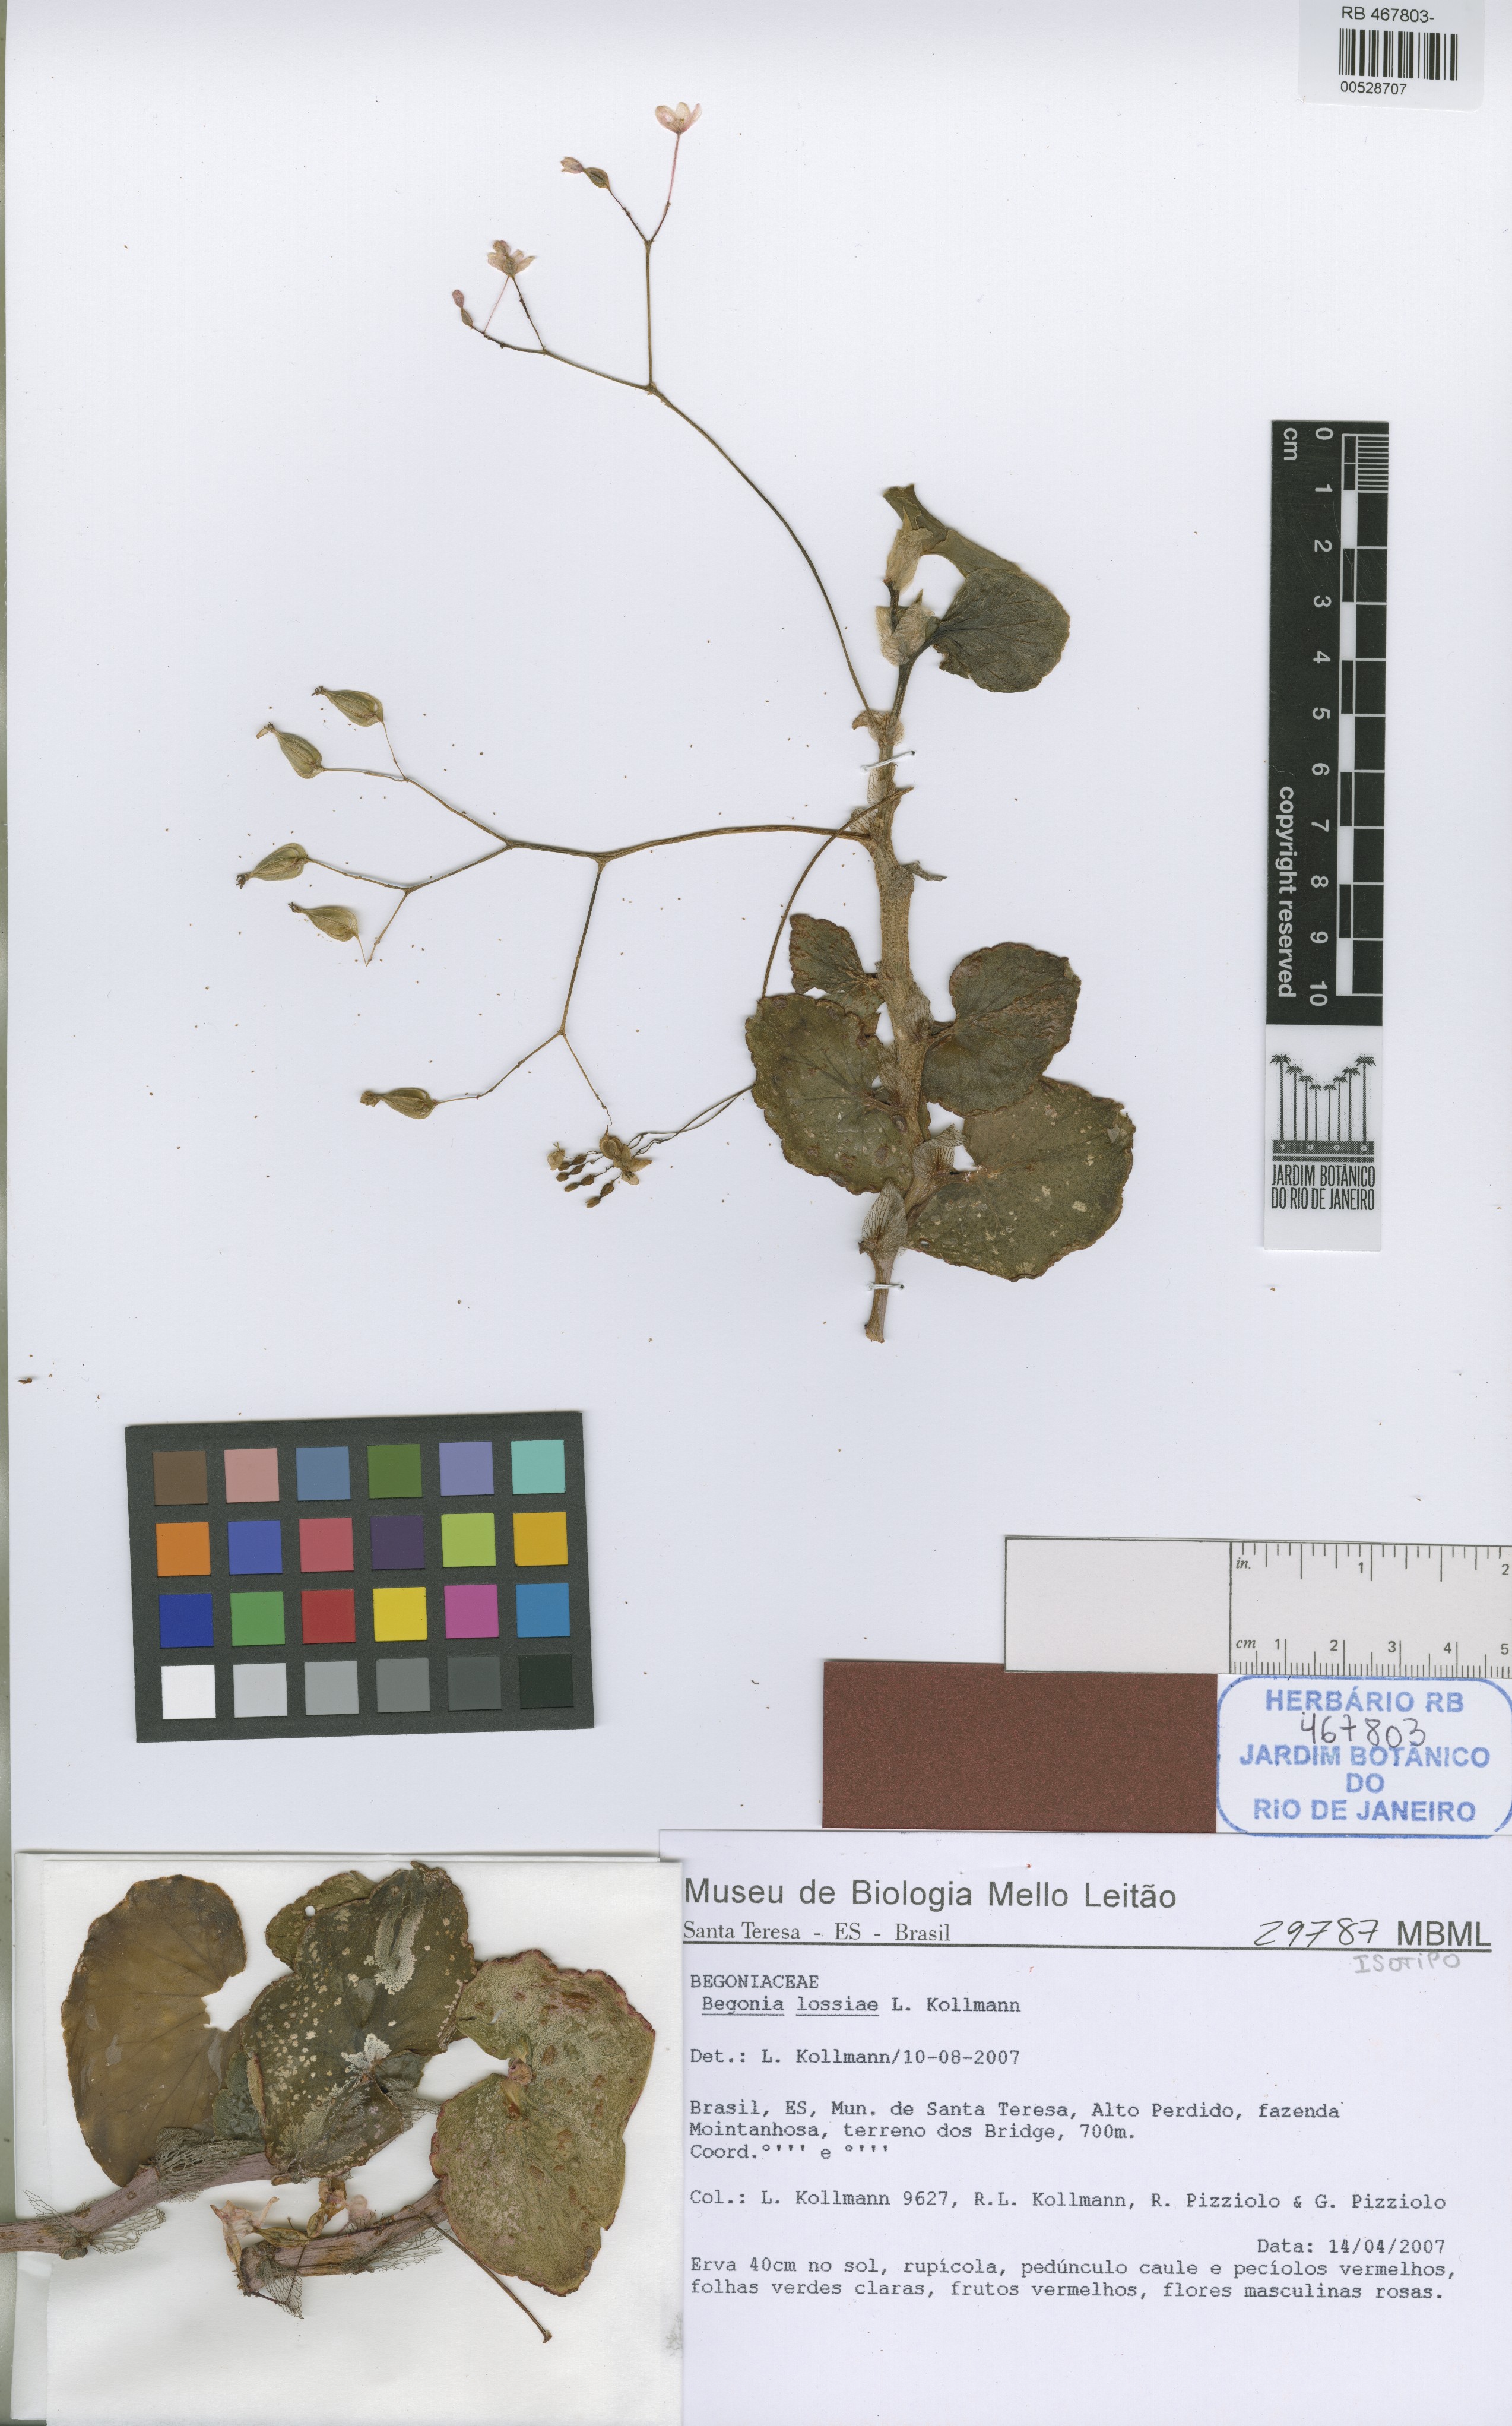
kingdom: Plantae
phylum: Tracheophyta
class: Magnoliopsida
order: Cucurbitales
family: Begoniaceae
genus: Begonia
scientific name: Begonia lossiae
